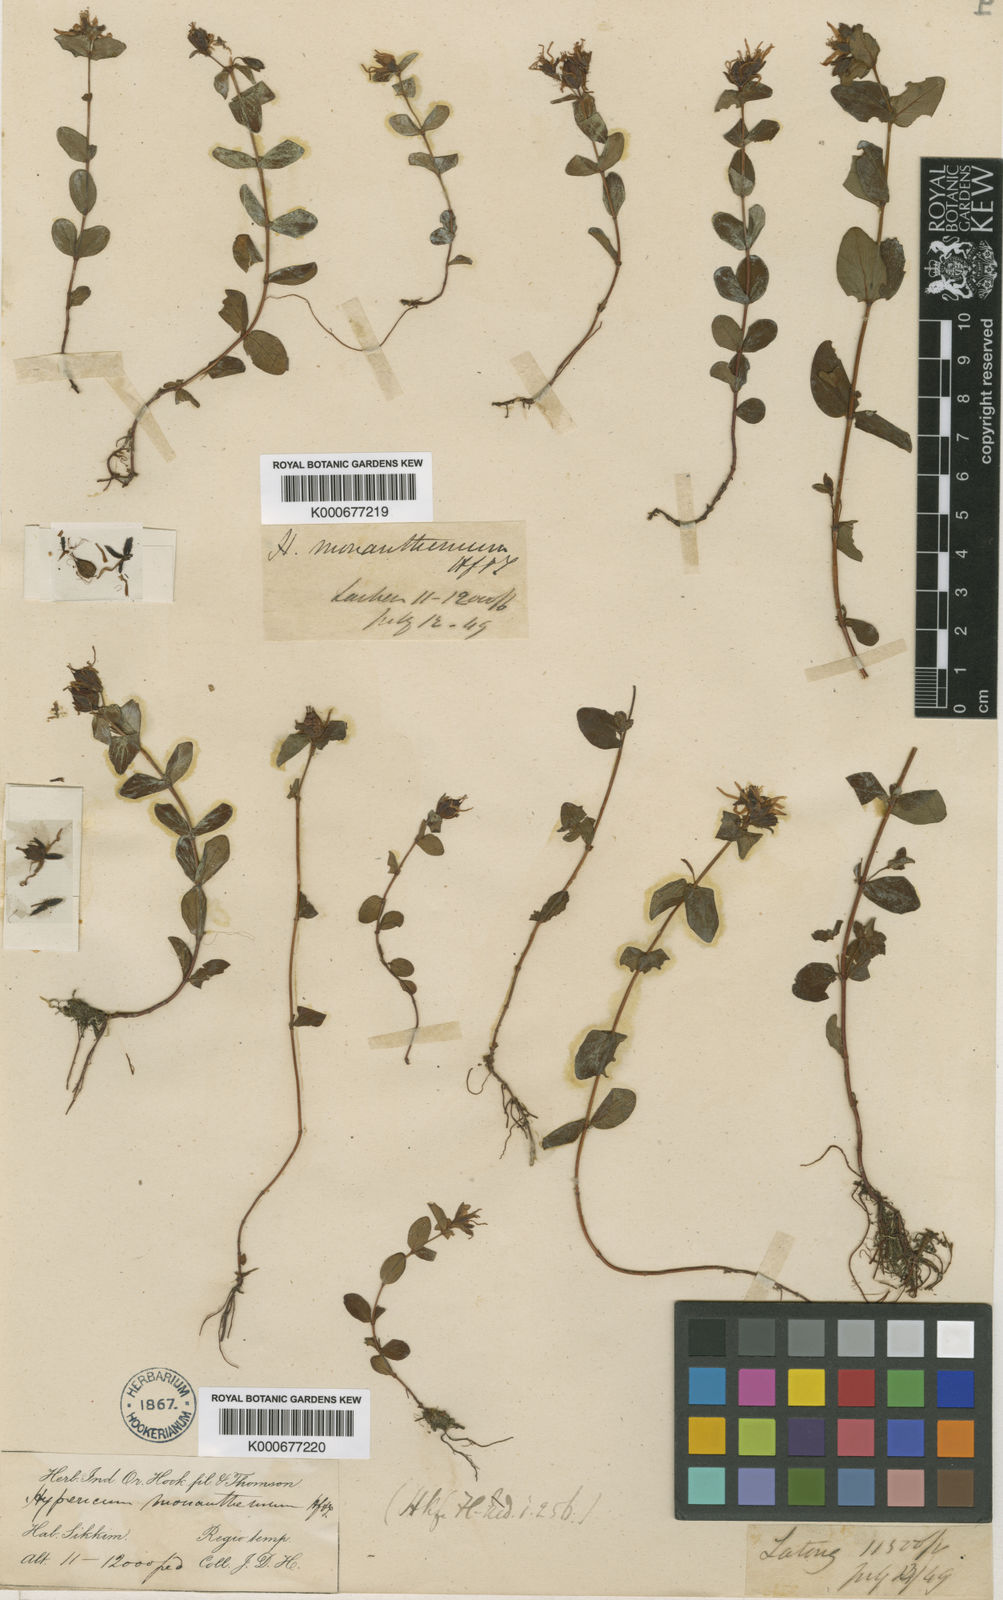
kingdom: Plantae
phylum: Tracheophyta
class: Magnoliopsida
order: Malpighiales
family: Hypericaceae
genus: Hypericum
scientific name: Hypericum himalaicum
